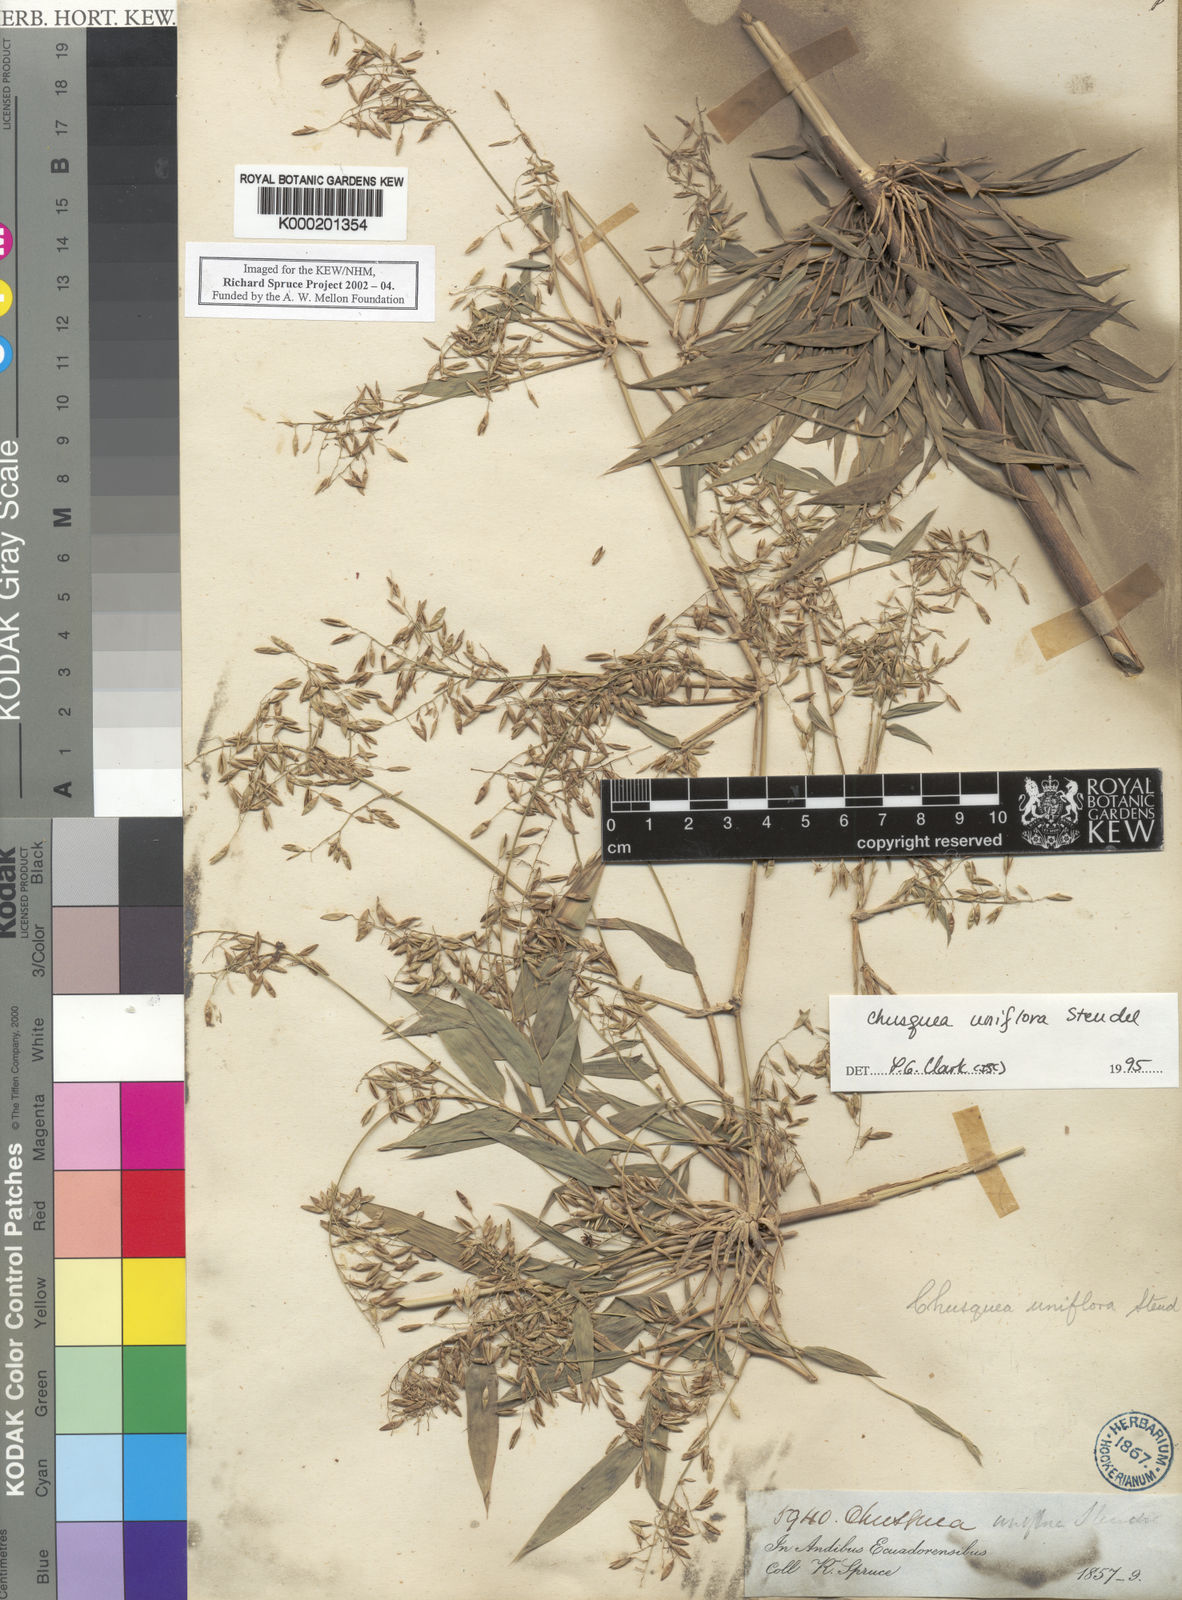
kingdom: Plantae
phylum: Tracheophyta
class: Liliopsida
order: Poales
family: Poaceae
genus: Chusquea
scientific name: Chusquea uniflora
